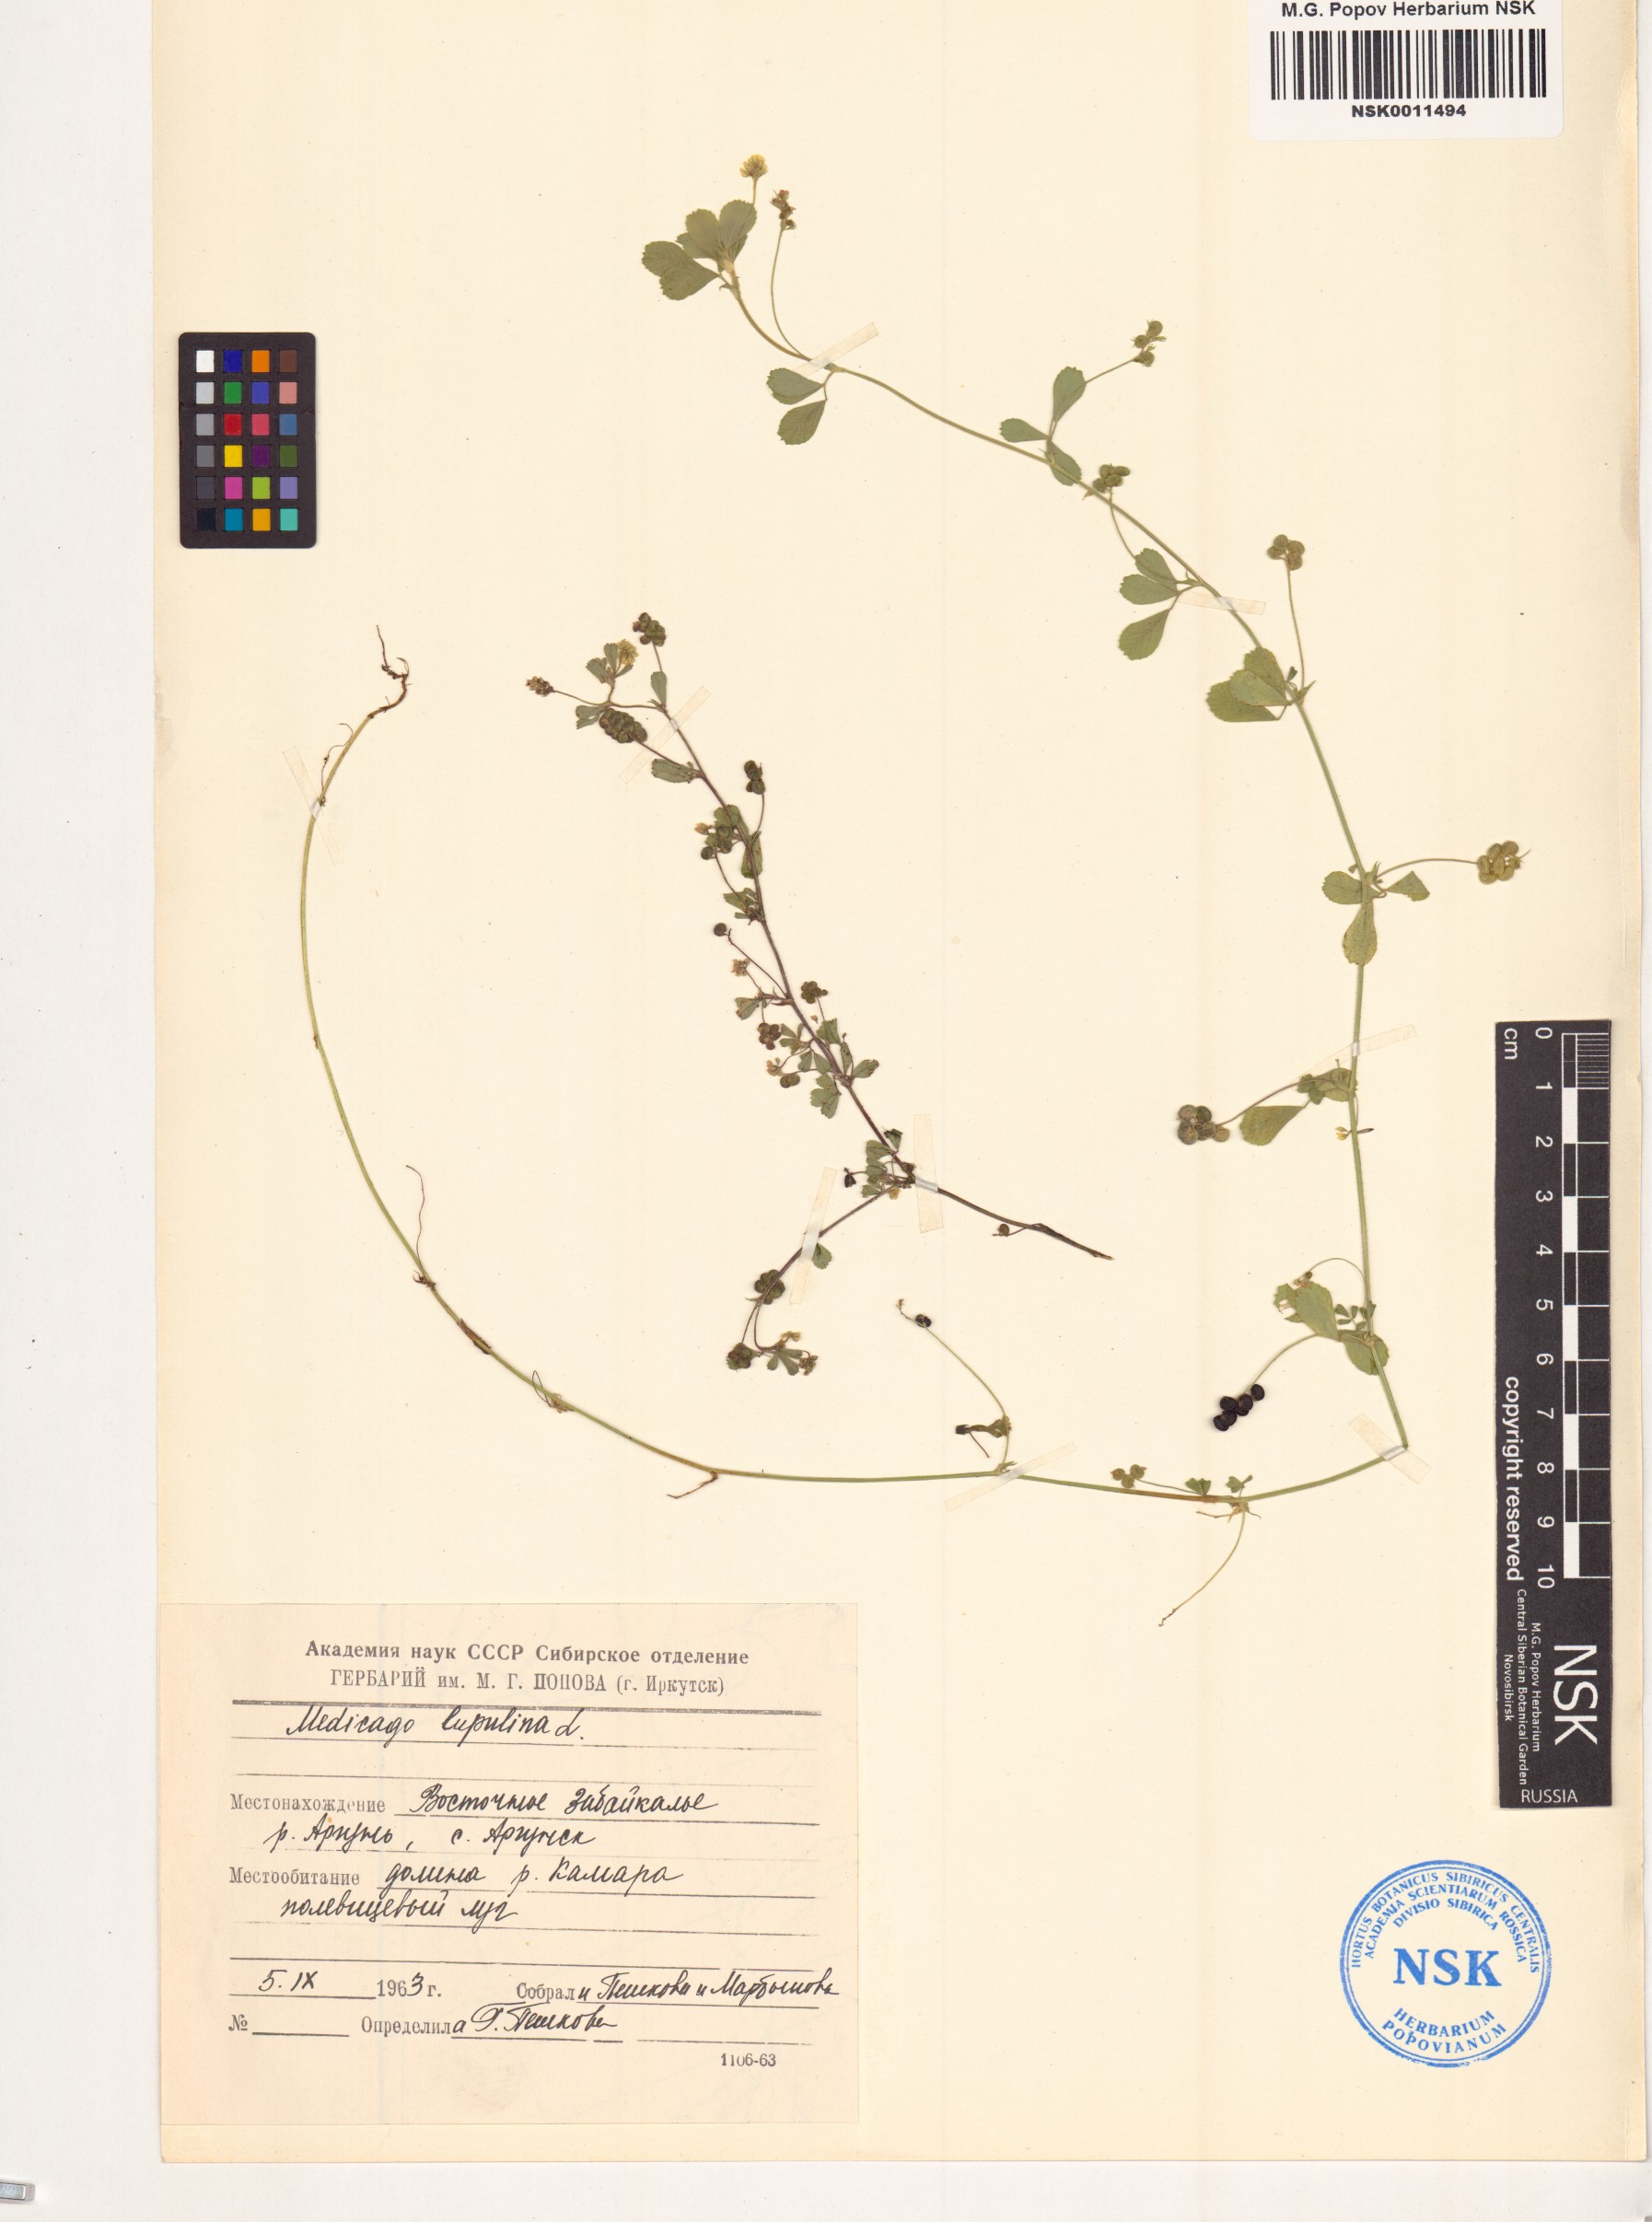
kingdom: Plantae
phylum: Tracheophyta
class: Magnoliopsida
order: Fabales
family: Fabaceae
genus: Medicago
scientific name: Medicago lupulina
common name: Black medick
